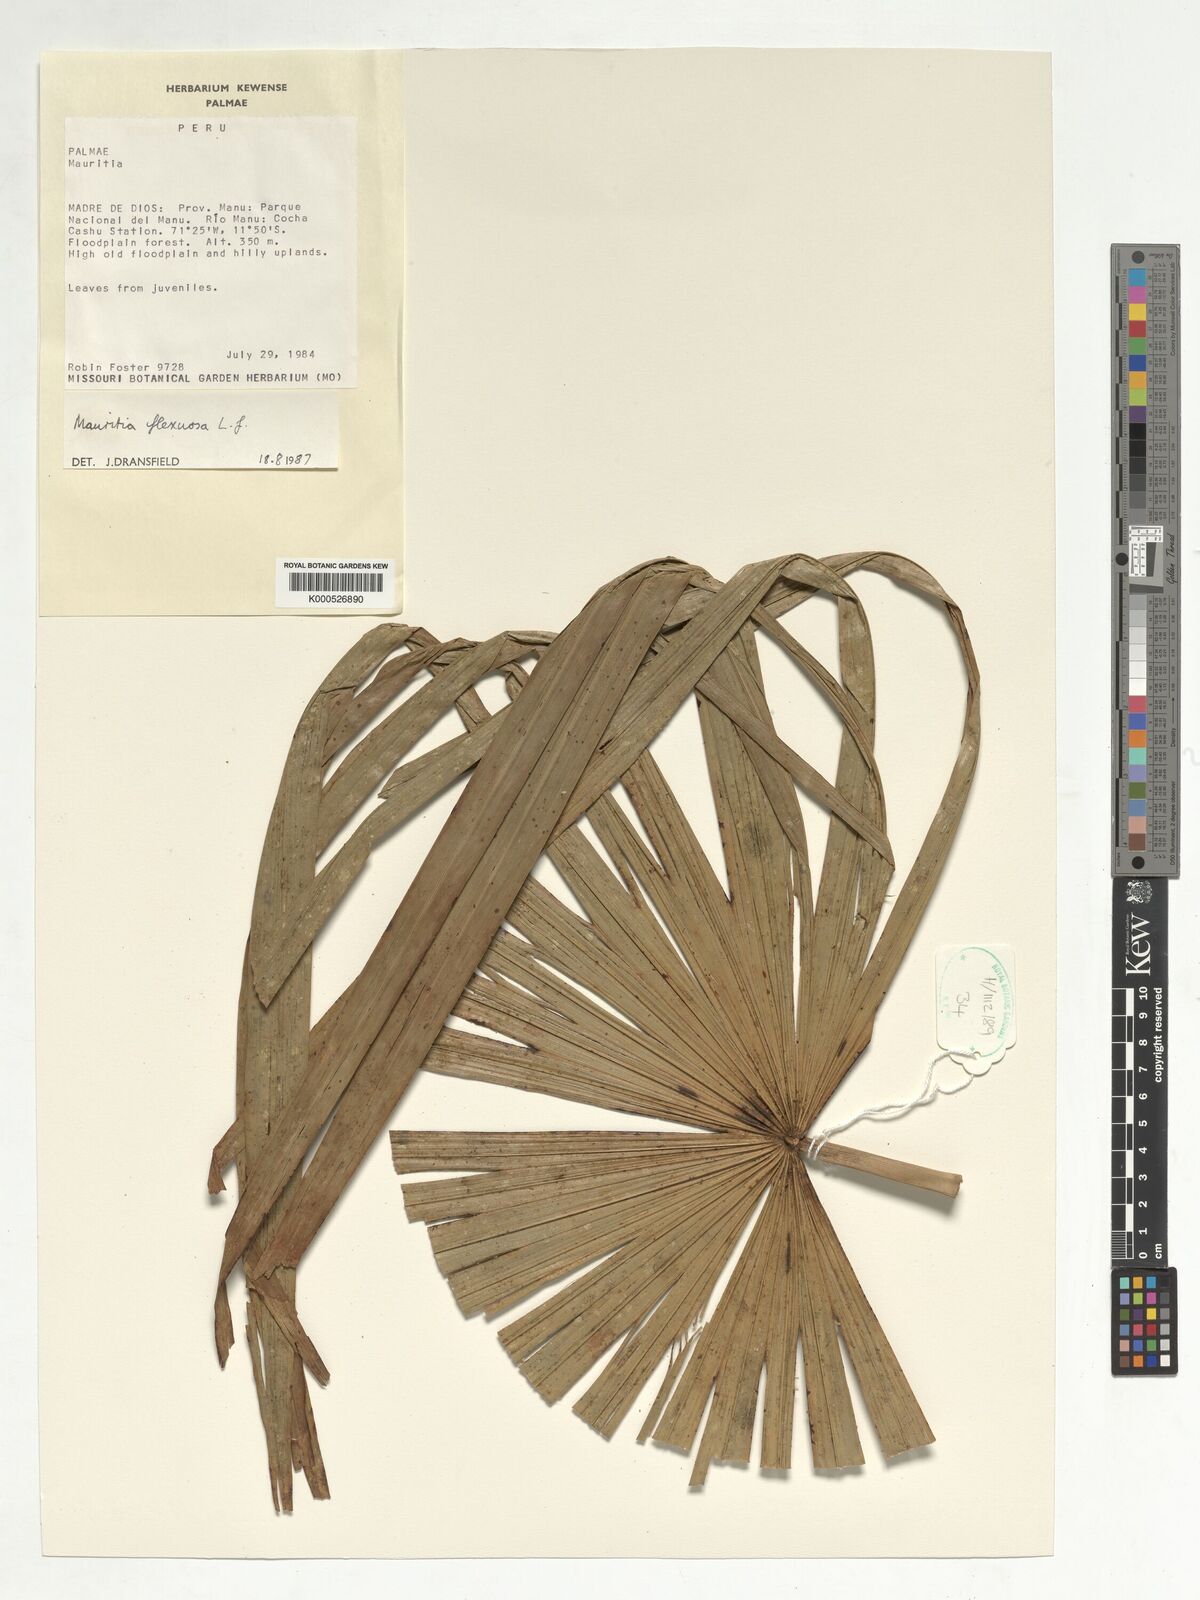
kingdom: Plantae
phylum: Tracheophyta
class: Liliopsida
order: Arecales
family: Arecaceae
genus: Mauritia
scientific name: Mauritia flexuosa
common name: Tree-of-life
